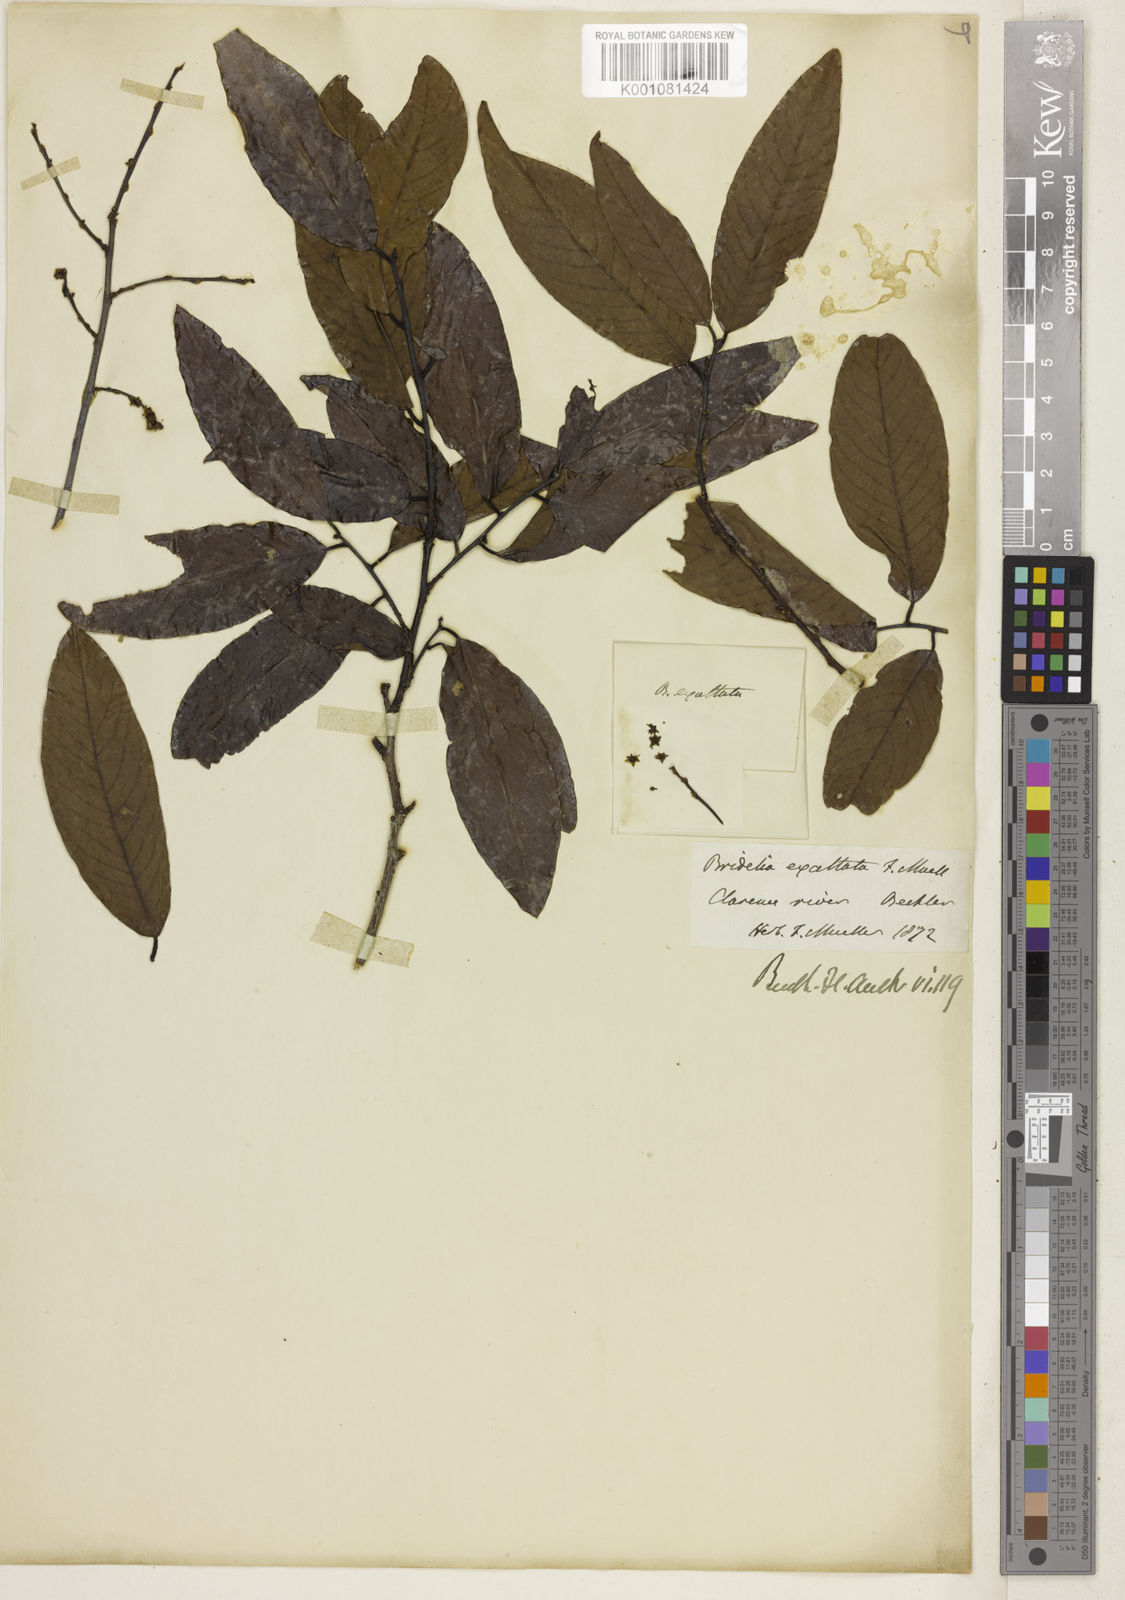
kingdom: Plantae
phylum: Tracheophyta
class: Magnoliopsida
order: Malpighiales
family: Phyllanthaceae
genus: Bridelia
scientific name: Bridelia exaltata
